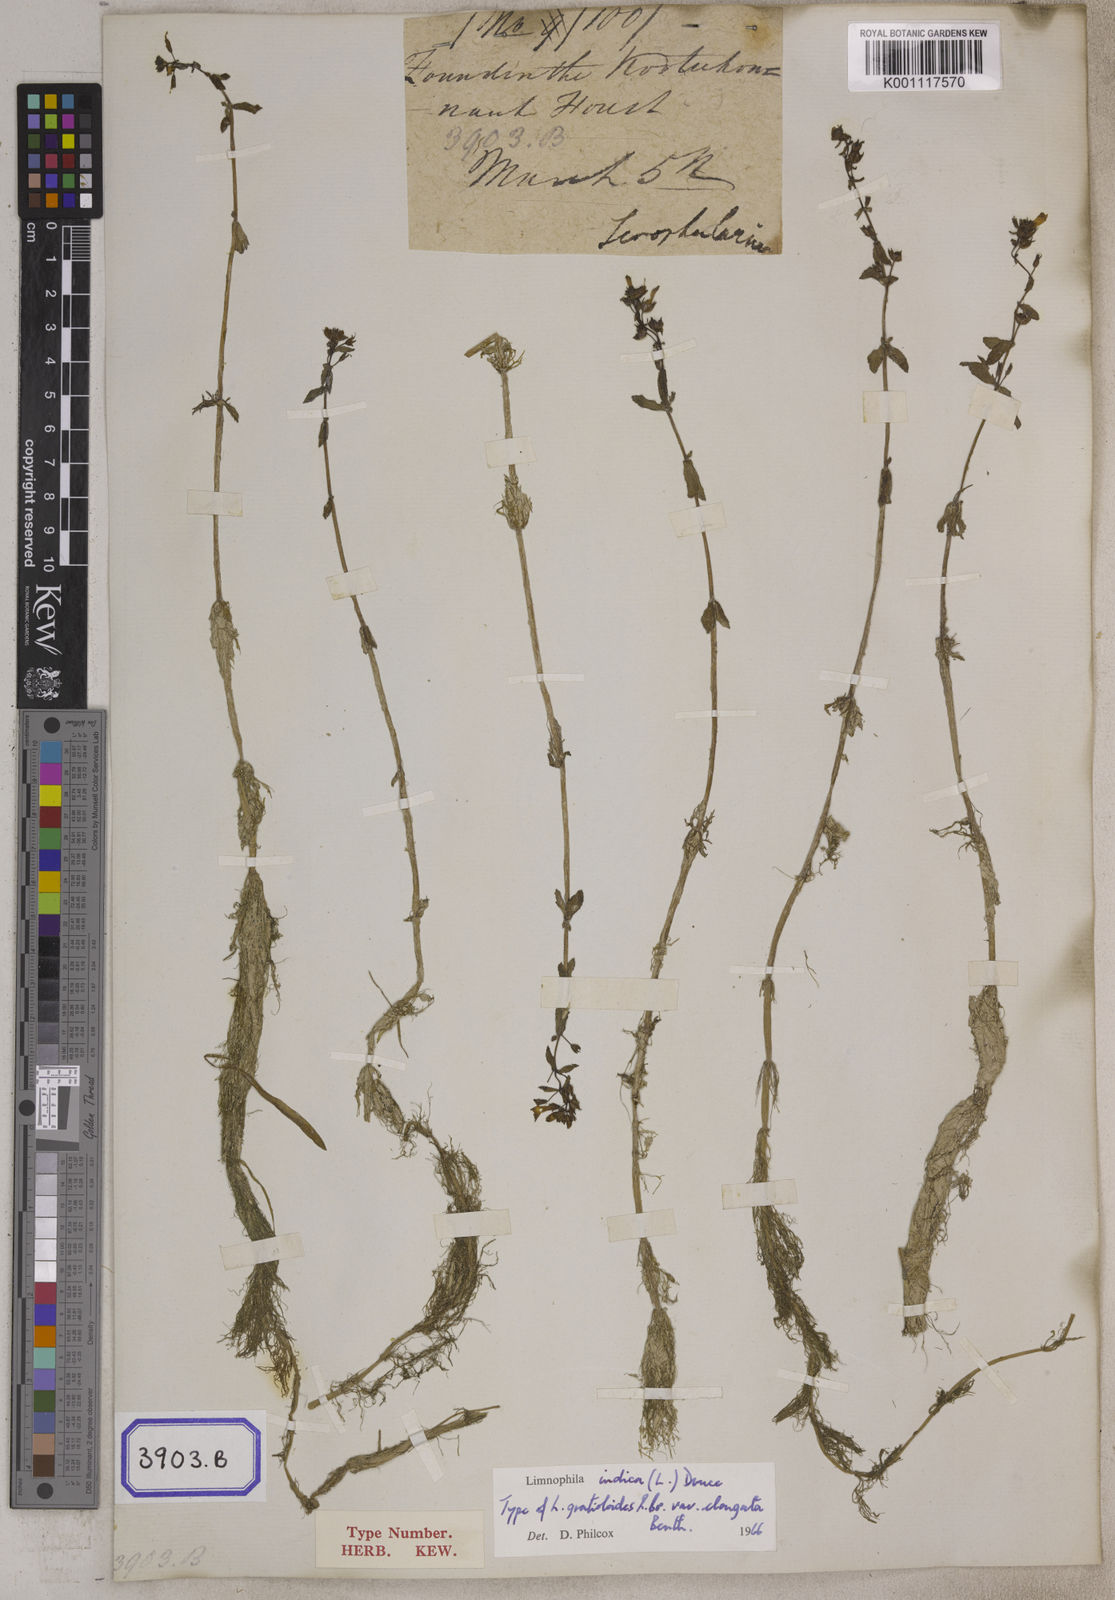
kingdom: Plantae
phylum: Tracheophyta
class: Magnoliopsida
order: Lamiales
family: Plantaginaceae
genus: Limnophila
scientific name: Limnophila indica
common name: Indian marshweed
